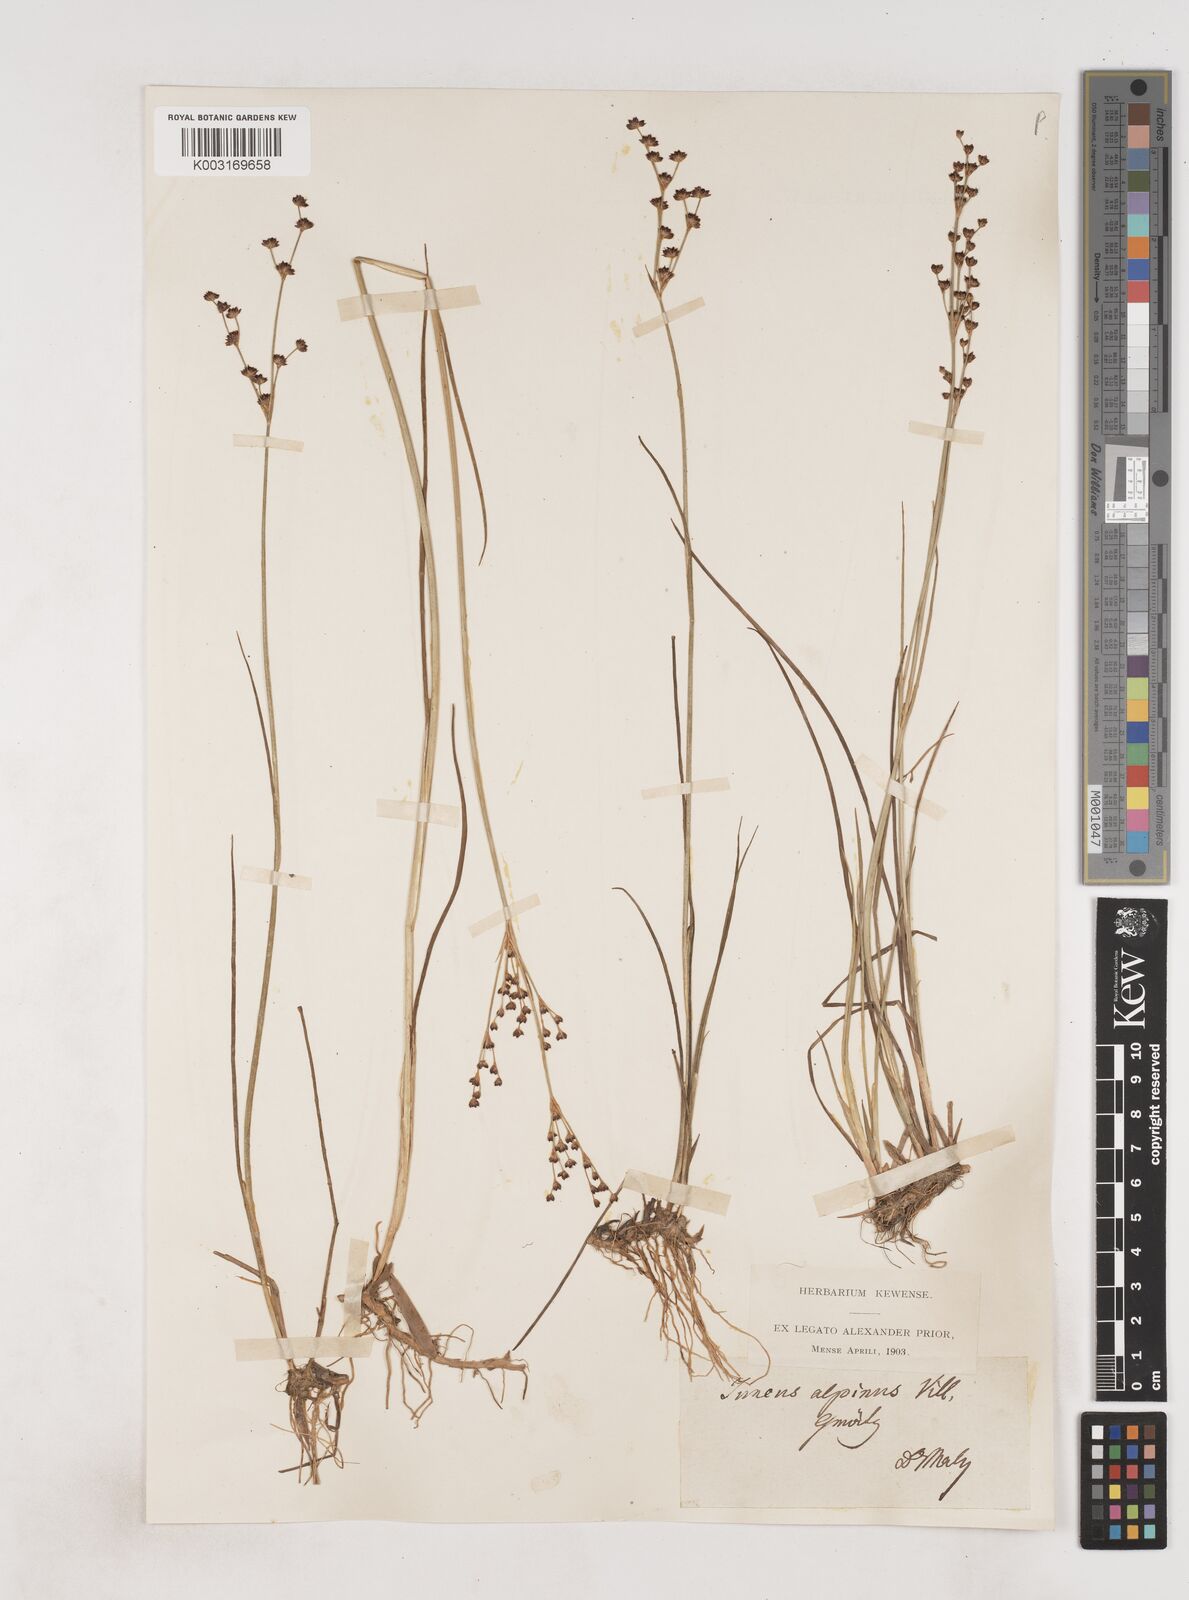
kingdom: Plantae
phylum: Tracheophyta
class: Liliopsida
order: Poales
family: Juncaceae
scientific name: Juncaceae
